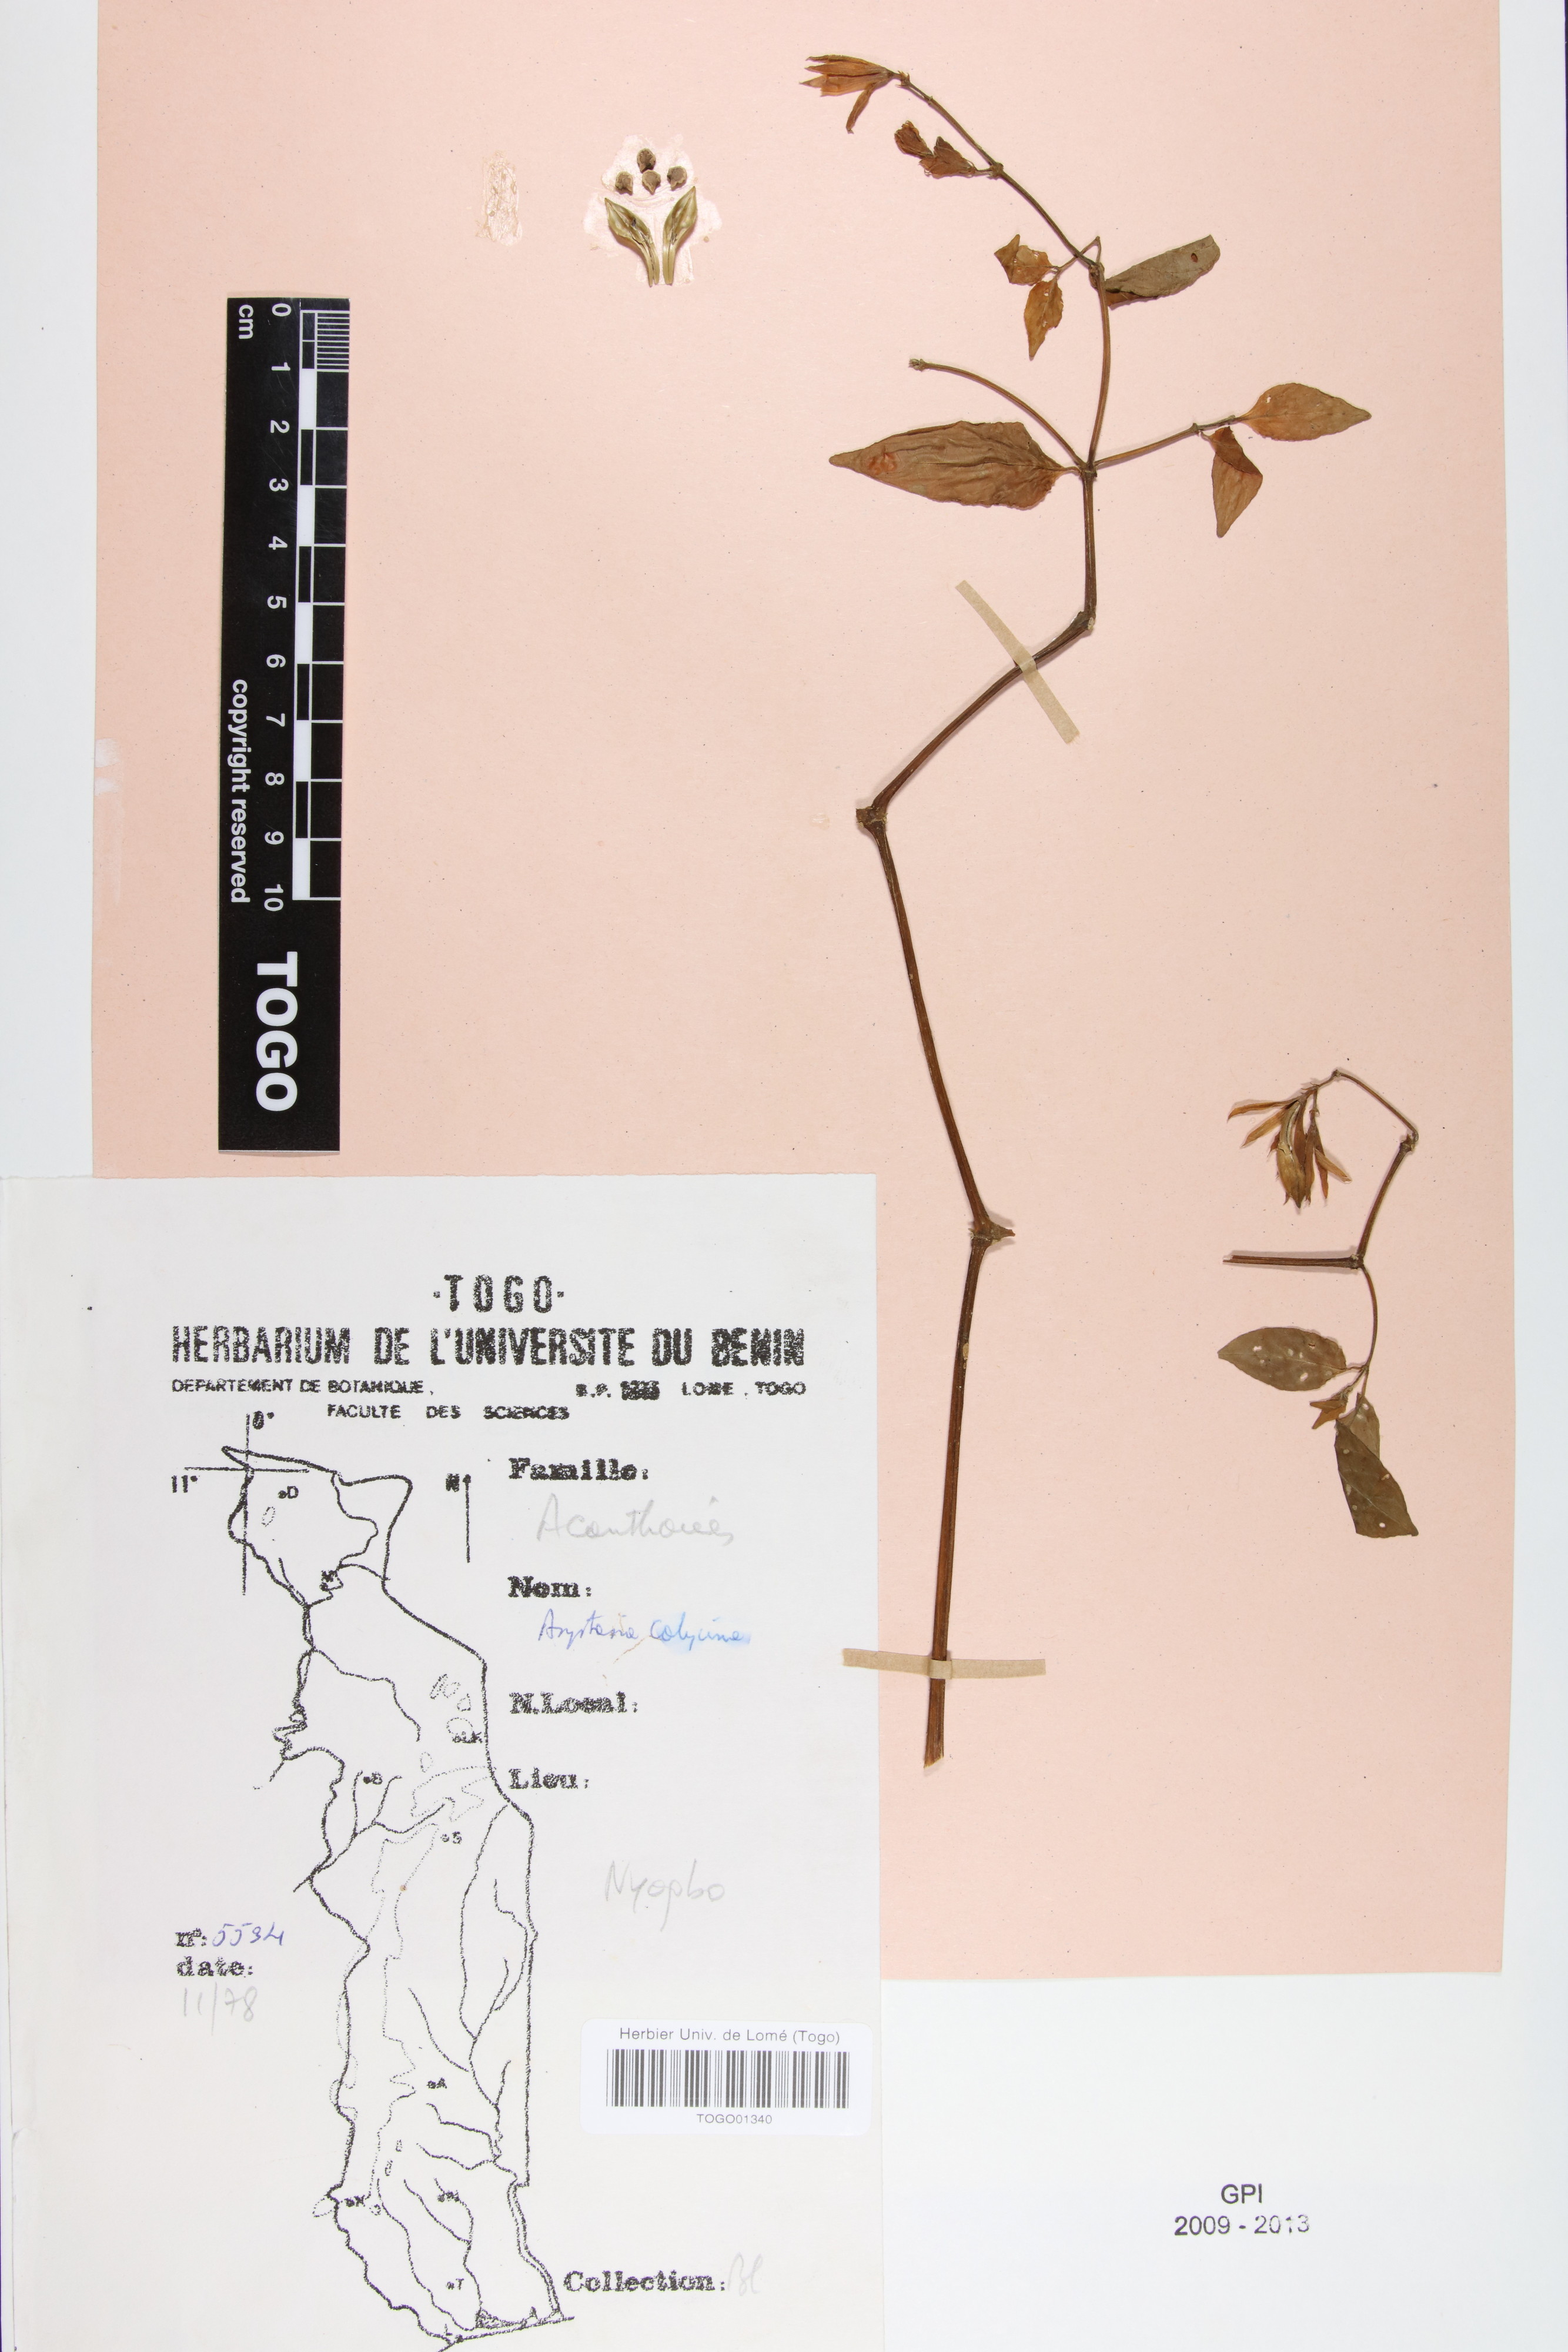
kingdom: Plantae
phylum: Tracheophyta
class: Magnoliopsida
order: Lamiales
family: Acanthaceae
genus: Asystasia
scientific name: Asystasia buettneri
